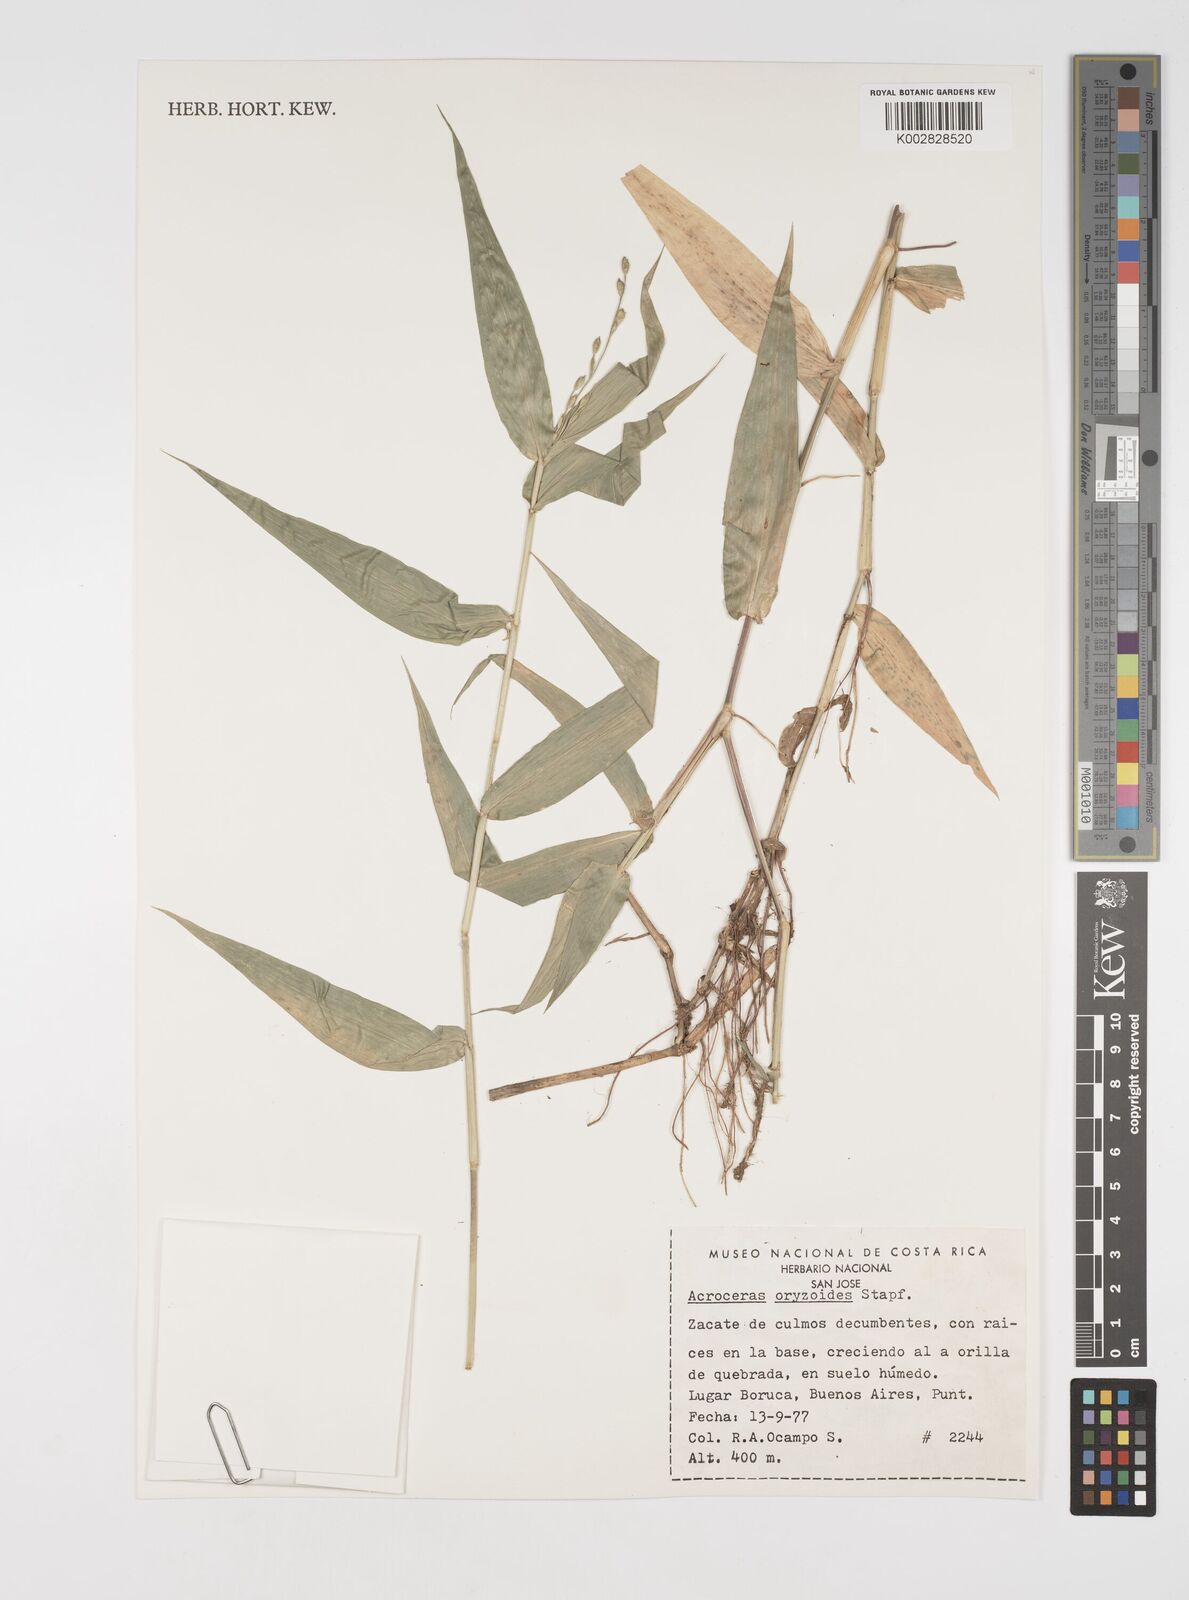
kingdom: Plantae
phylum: Tracheophyta
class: Liliopsida
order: Poales
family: Poaceae
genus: Acroceras
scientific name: Acroceras zizanioides
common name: Oat grass
